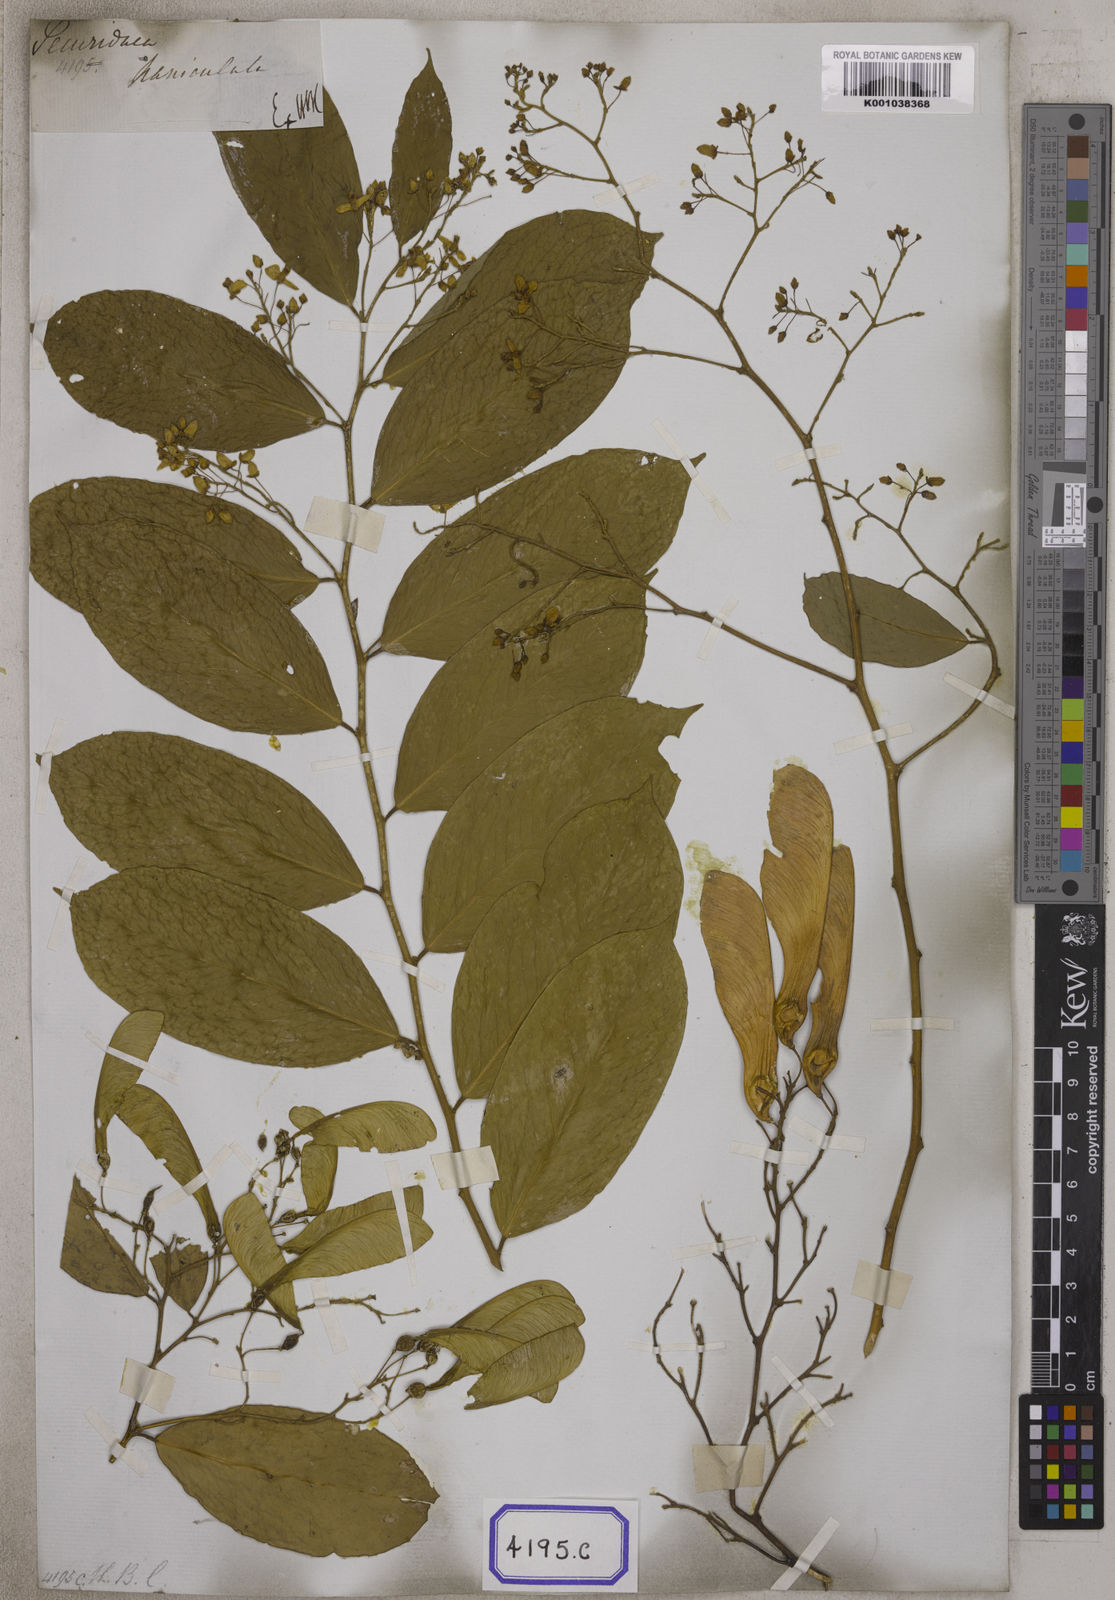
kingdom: Plantae
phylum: Tracheophyta
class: Magnoliopsida
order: Fabales
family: Polygalaceae
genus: Securidaca
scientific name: Securidaca
